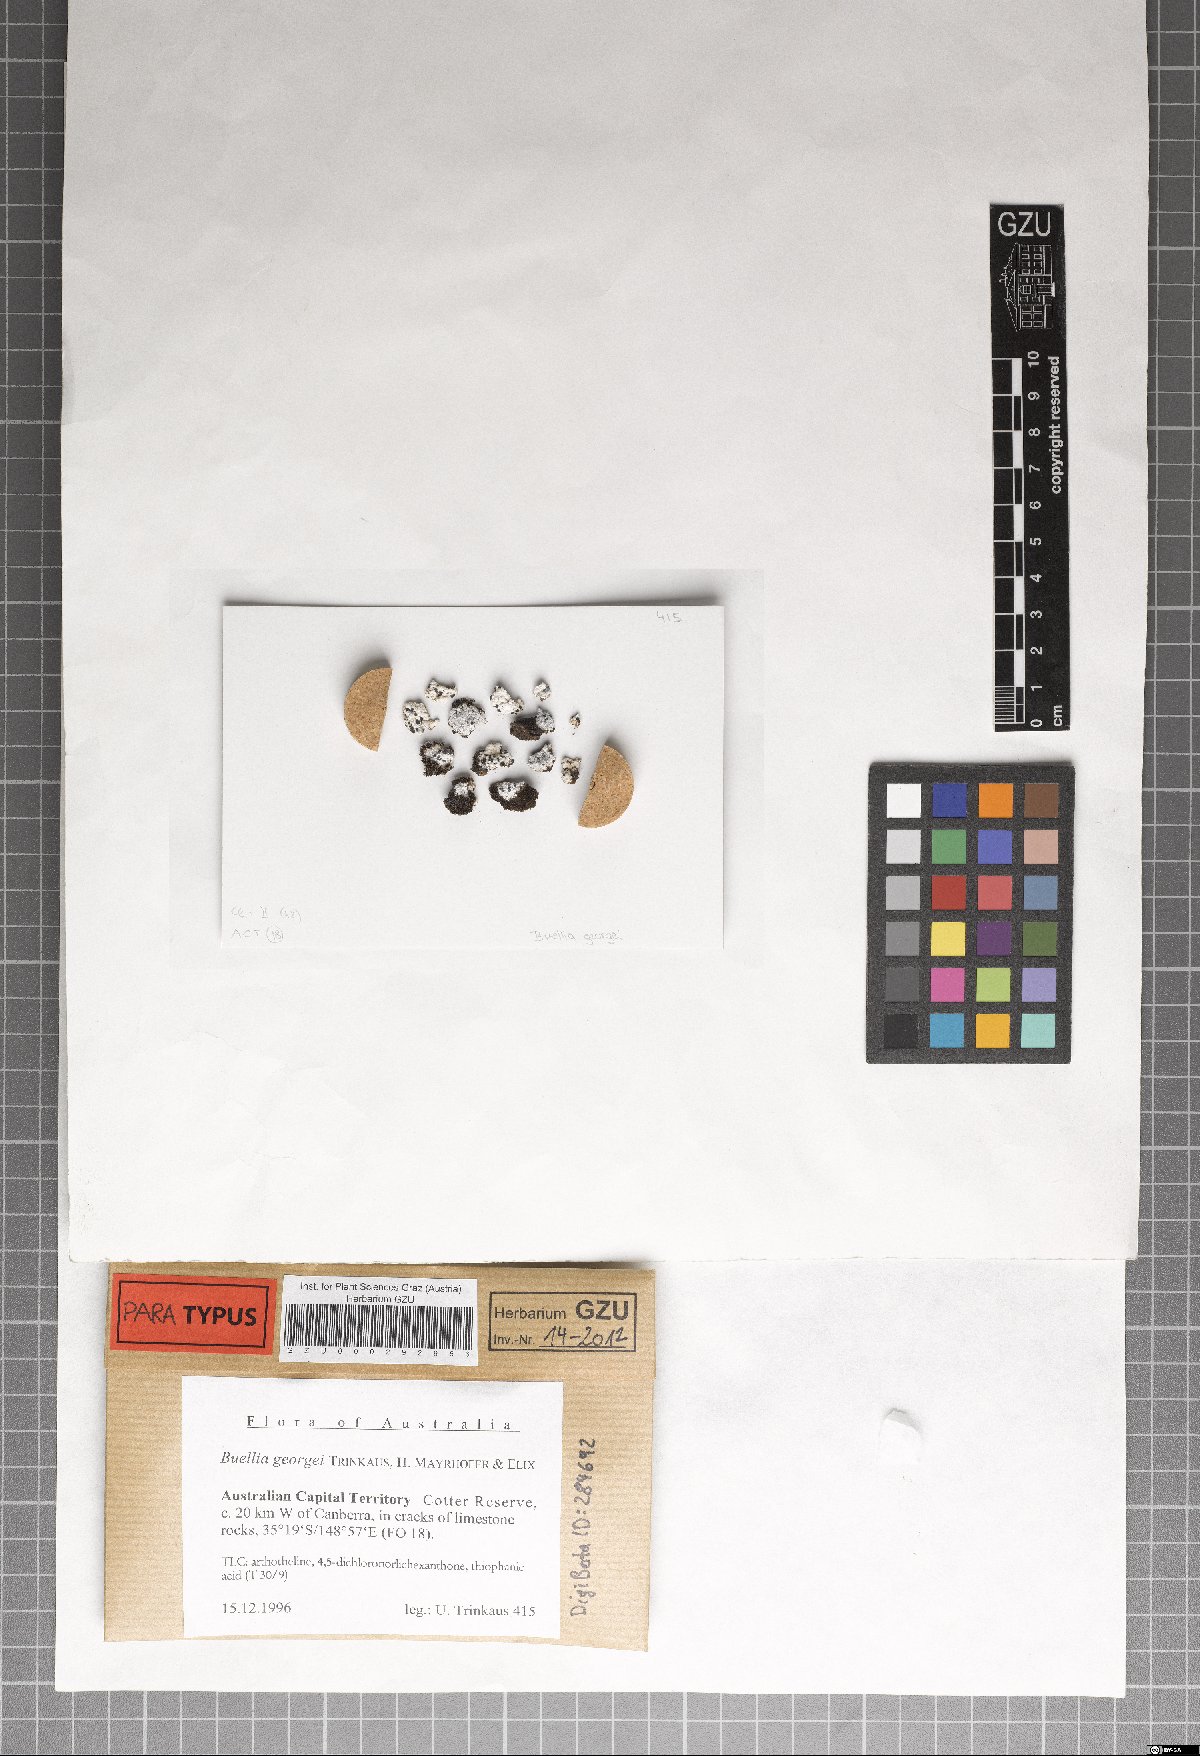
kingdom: Fungi
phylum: Ascomycota
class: Lecanoromycetes
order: Caliciales
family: Caliciaceae
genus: Buellia
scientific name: Buellia georgei
